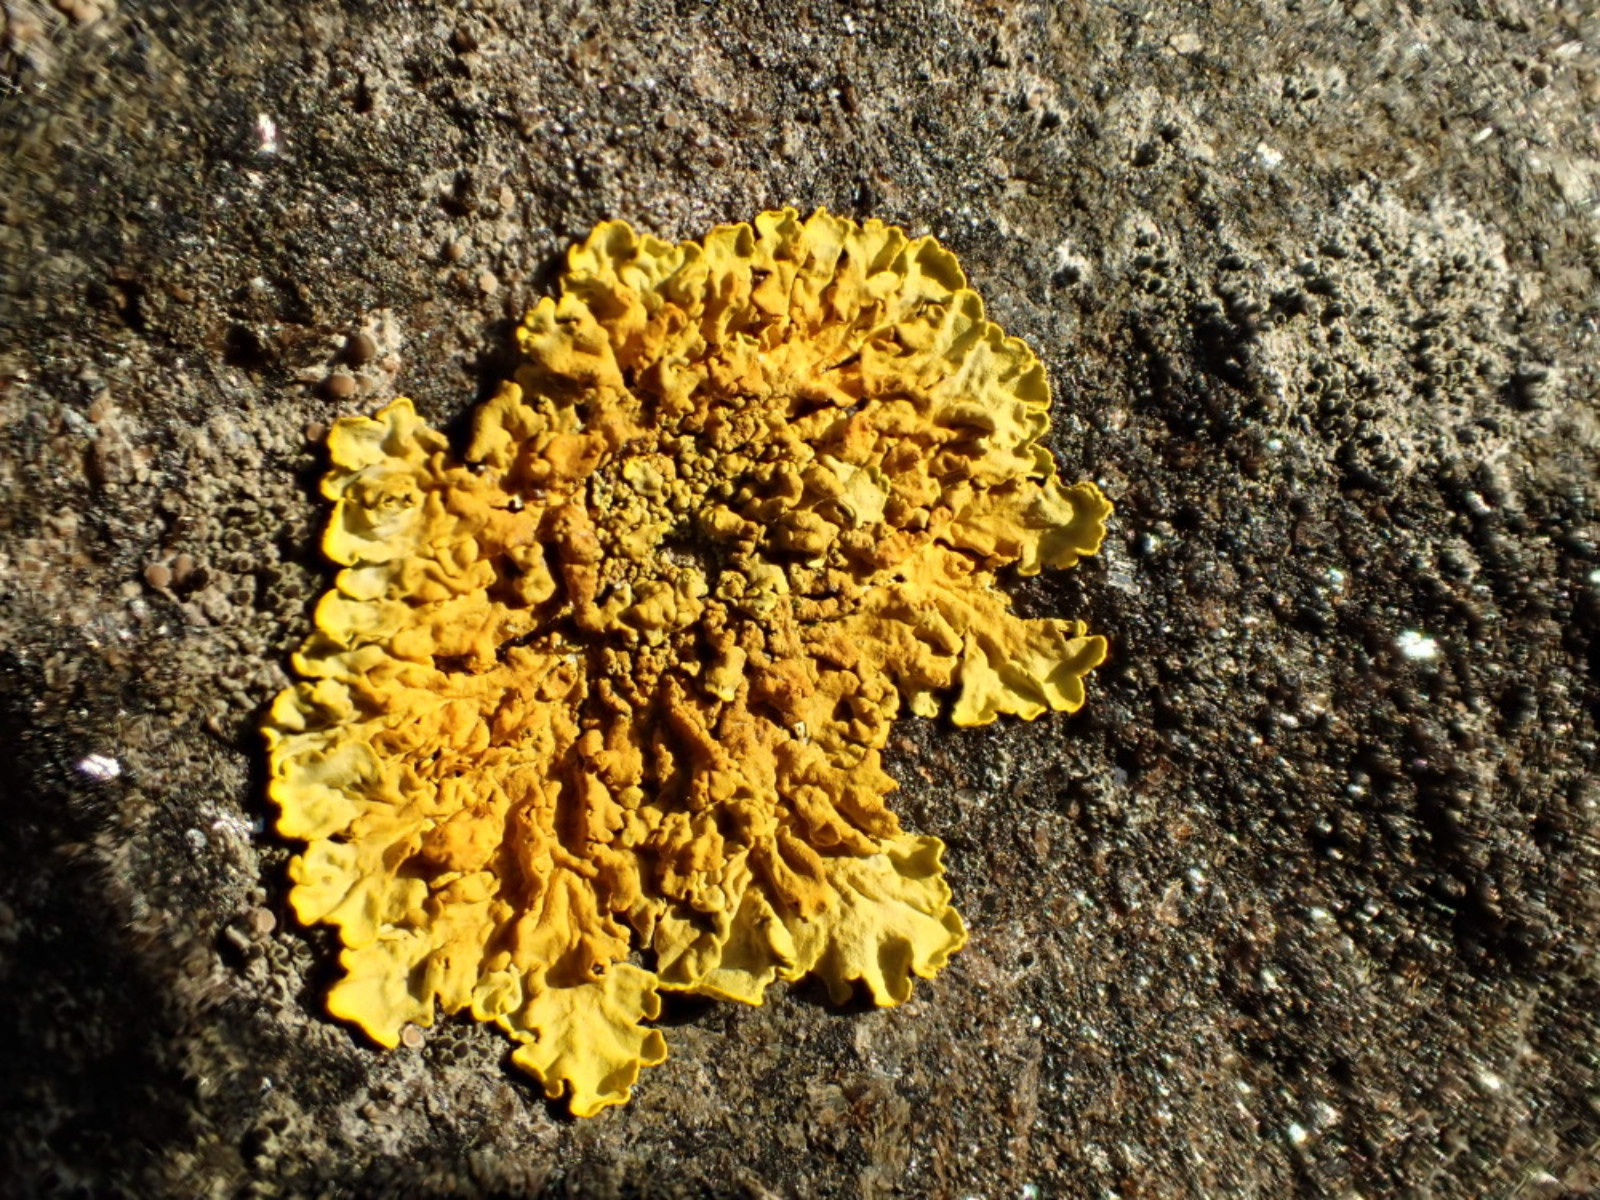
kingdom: Fungi
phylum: Ascomycota
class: Lecanoromycetes
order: Teloschistales
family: Teloschistaceae
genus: Xanthoria
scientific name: Xanthoria aureola
